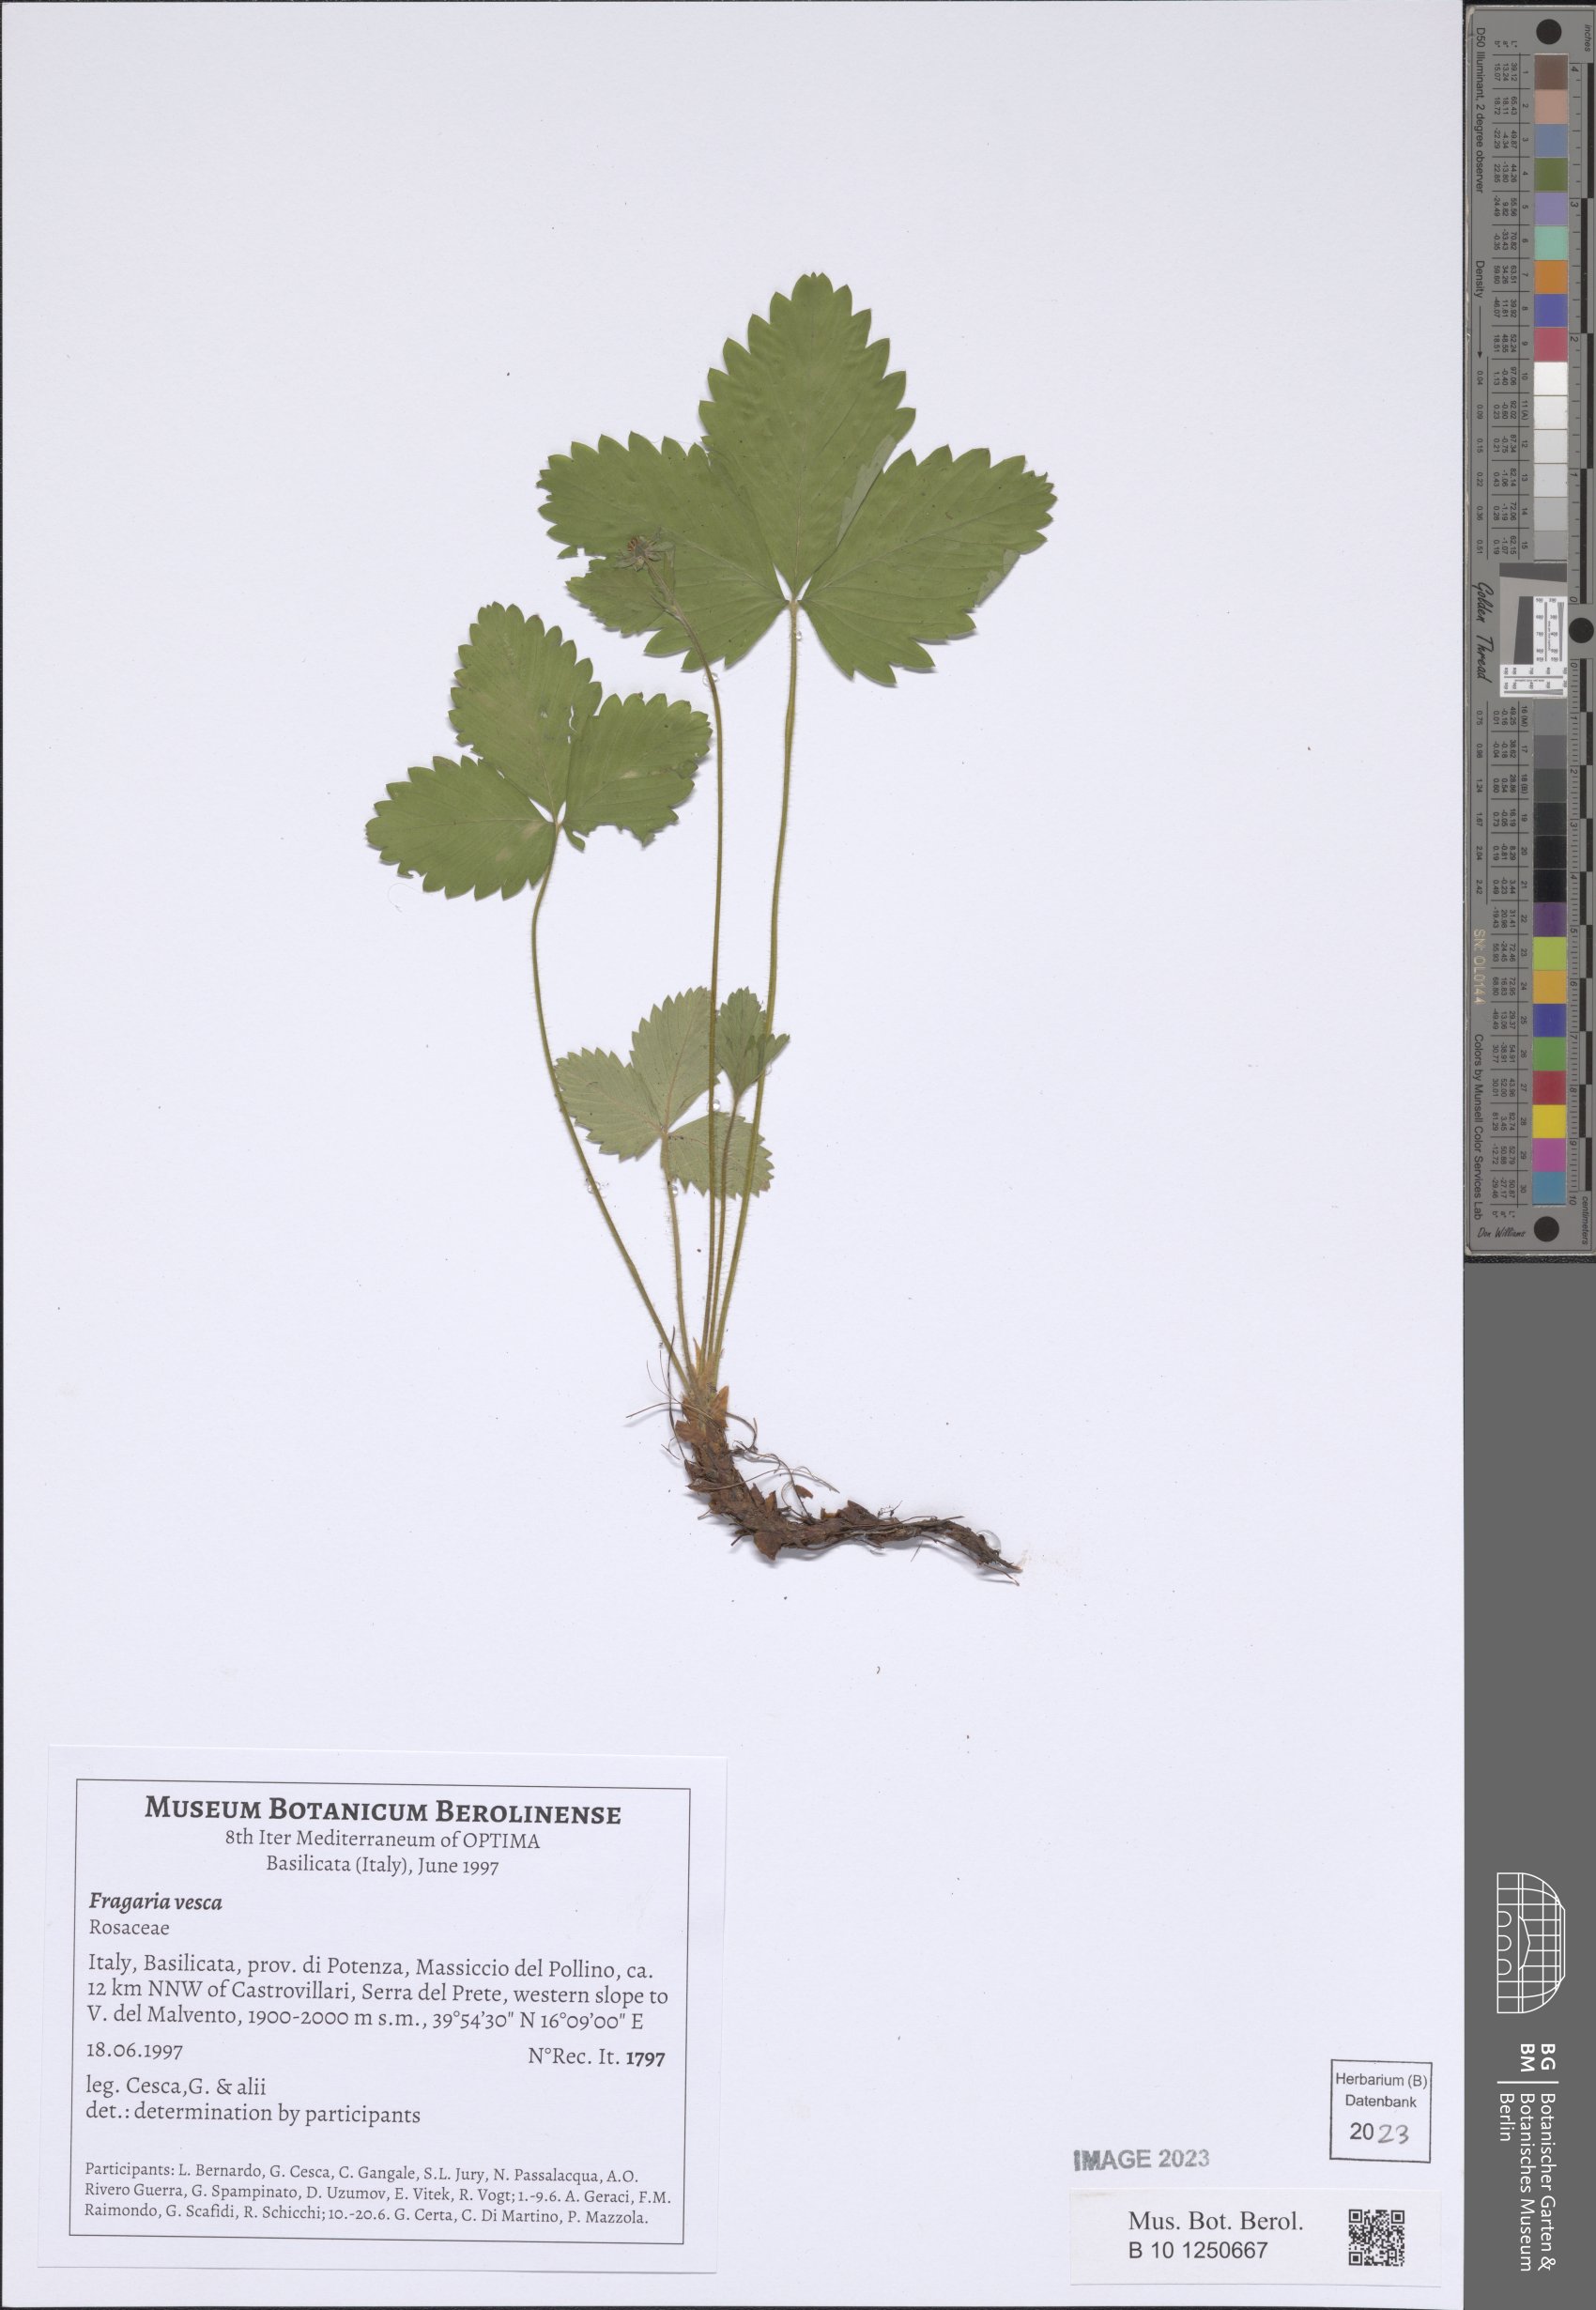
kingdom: Plantae
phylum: Tracheophyta
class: Magnoliopsida
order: Rosales
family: Rosaceae
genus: Fragaria
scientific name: Fragaria vesca
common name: Wild strawberry
